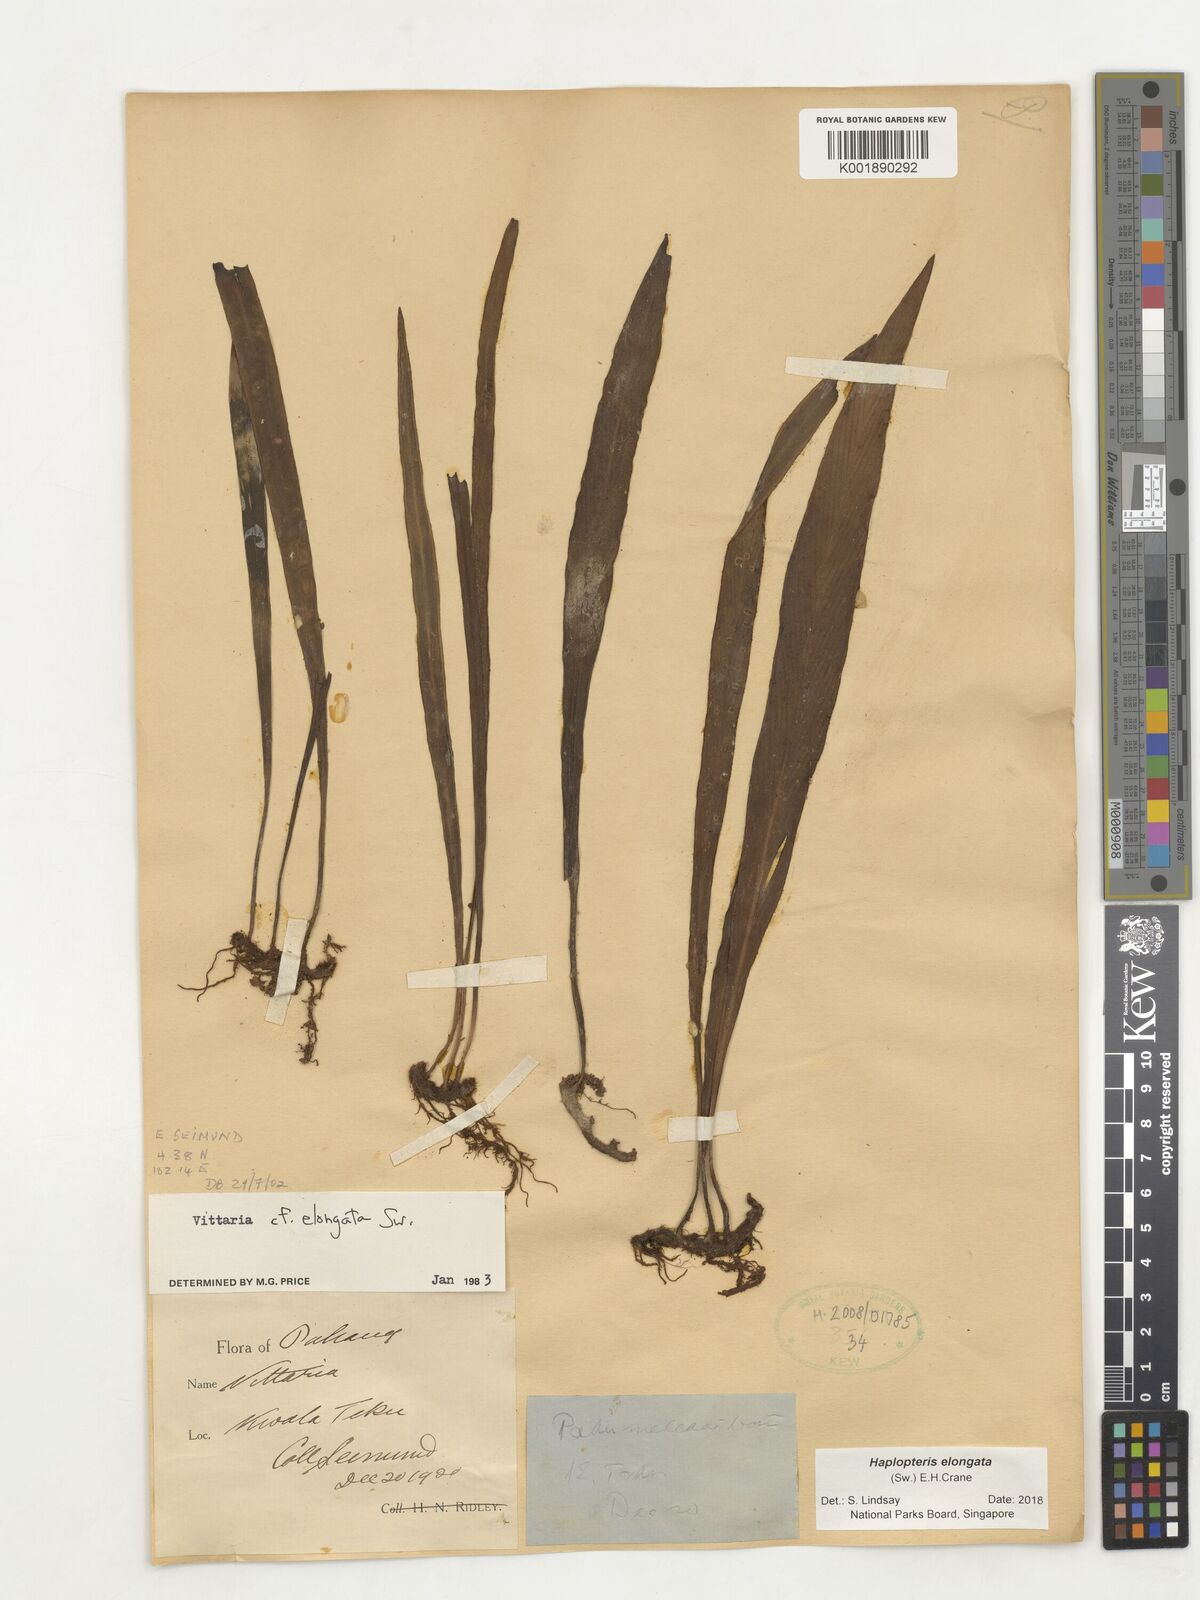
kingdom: Plantae
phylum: Tracheophyta
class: Polypodiopsida
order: Polypodiales
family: Pteridaceae
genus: Haplopteris
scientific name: Haplopteris elongata
